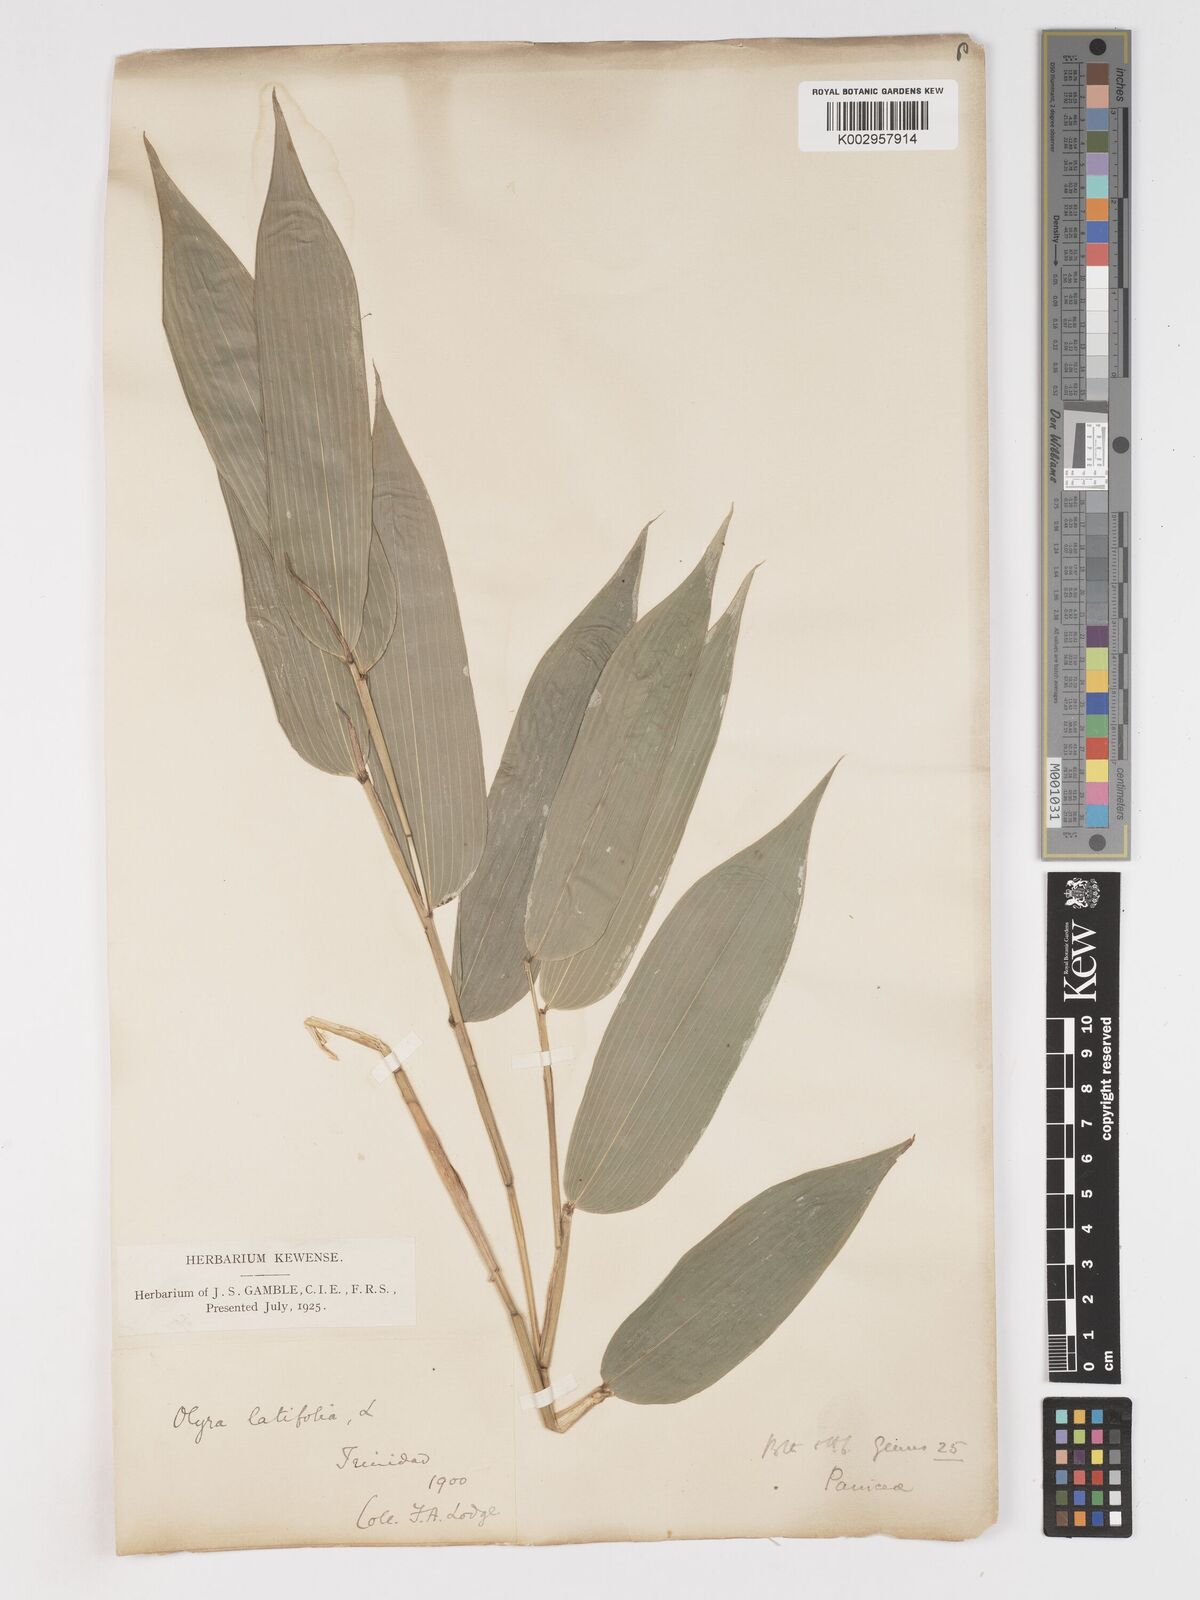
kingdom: Plantae
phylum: Tracheophyta
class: Liliopsida
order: Poales
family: Poaceae
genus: Olyra
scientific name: Olyra latifolia
